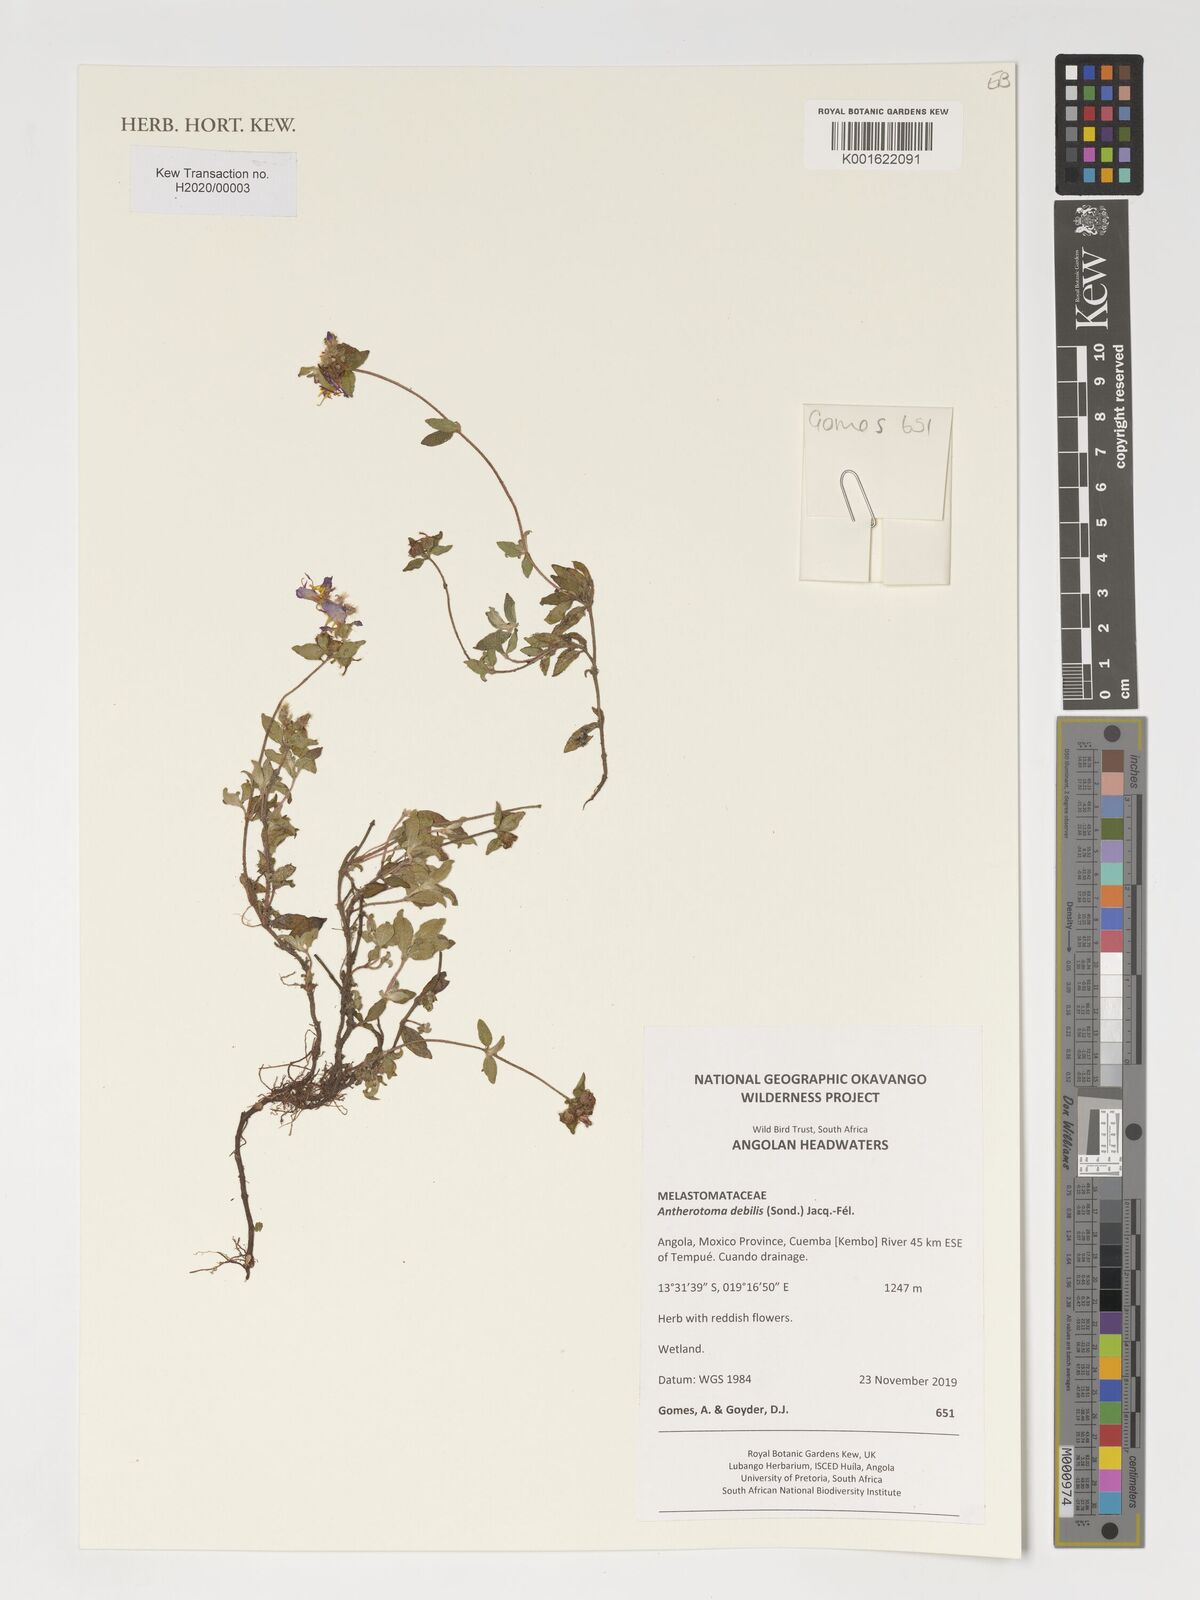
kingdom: Plantae
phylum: Tracheophyta
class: Magnoliopsida
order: Myrtales
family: Melastomataceae
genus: Antherotoma
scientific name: Antherotoma debilis
